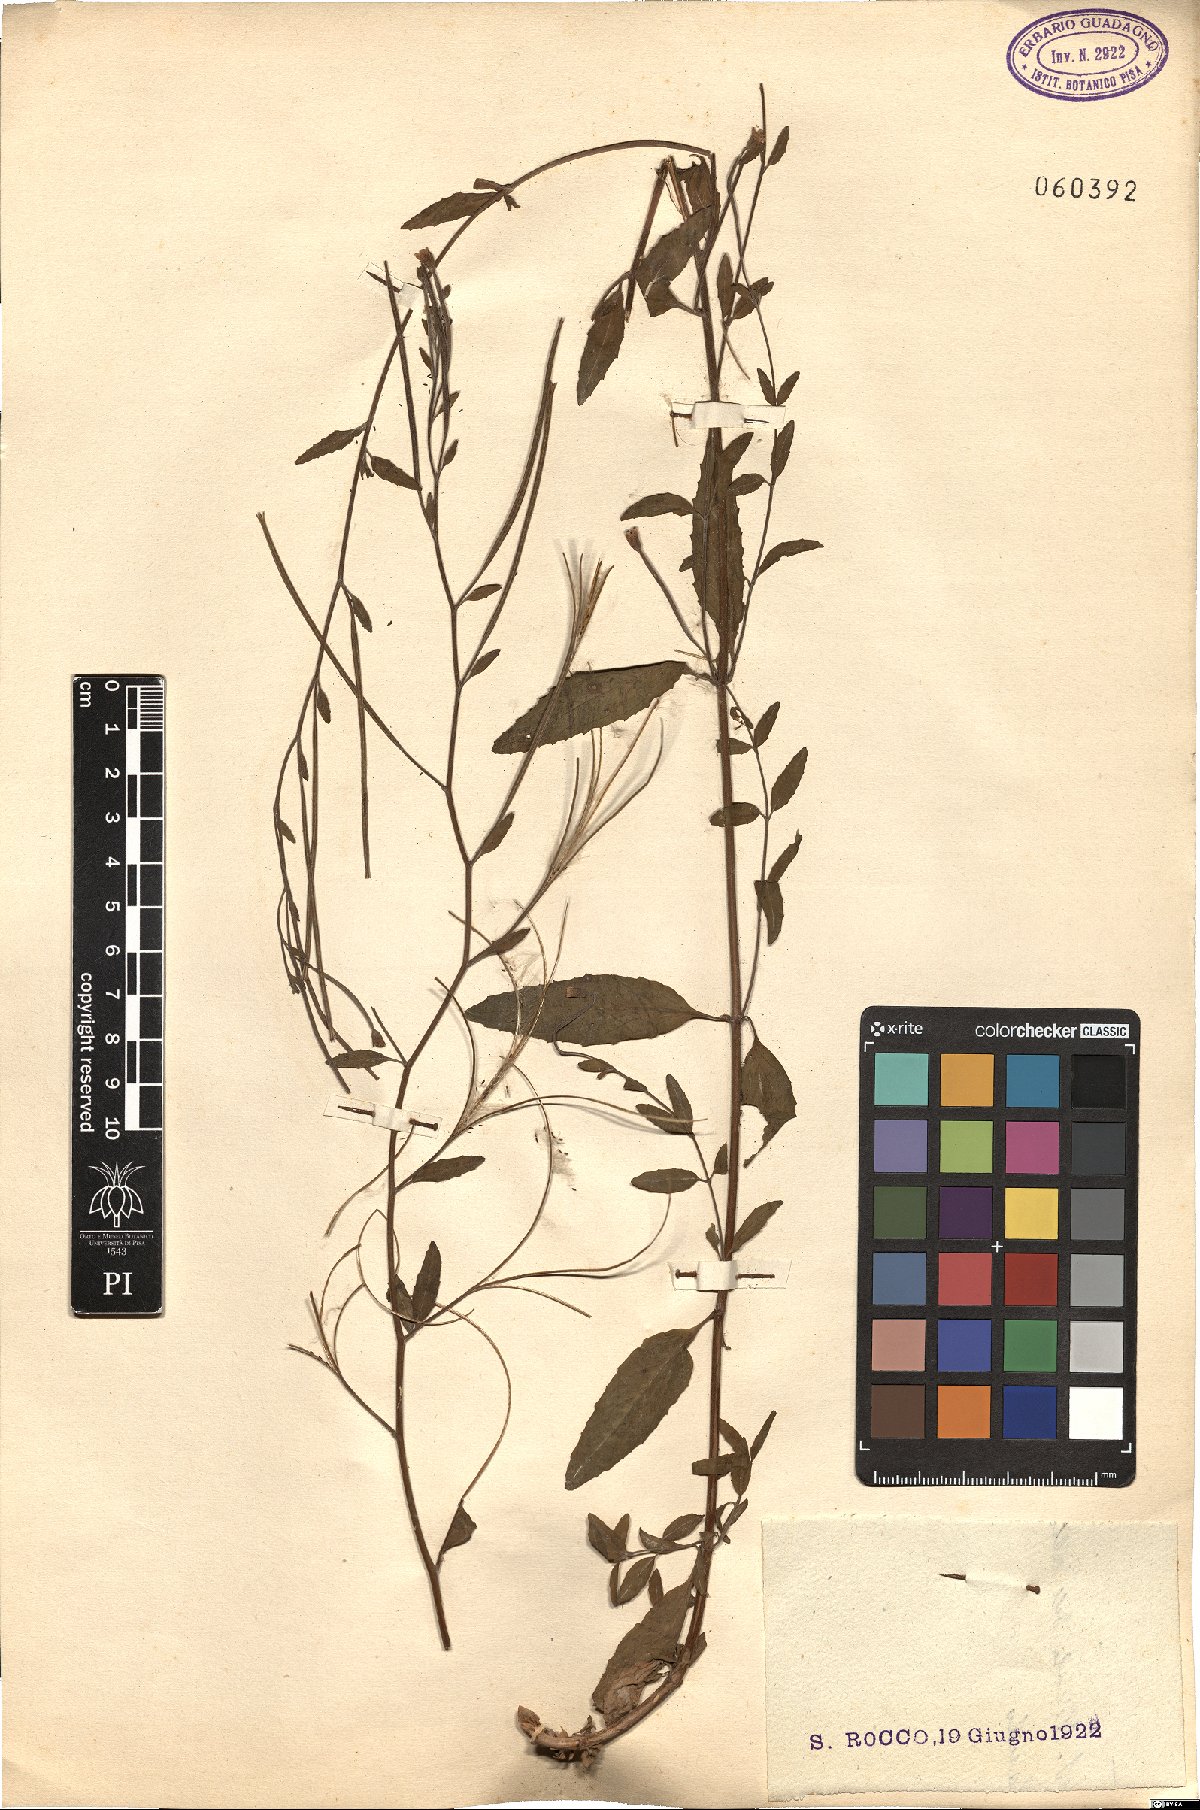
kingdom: Plantae
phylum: Tracheophyta
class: Magnoliopsida
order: Myrtales
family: Onagraceae
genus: Epilobium
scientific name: Epilobium
